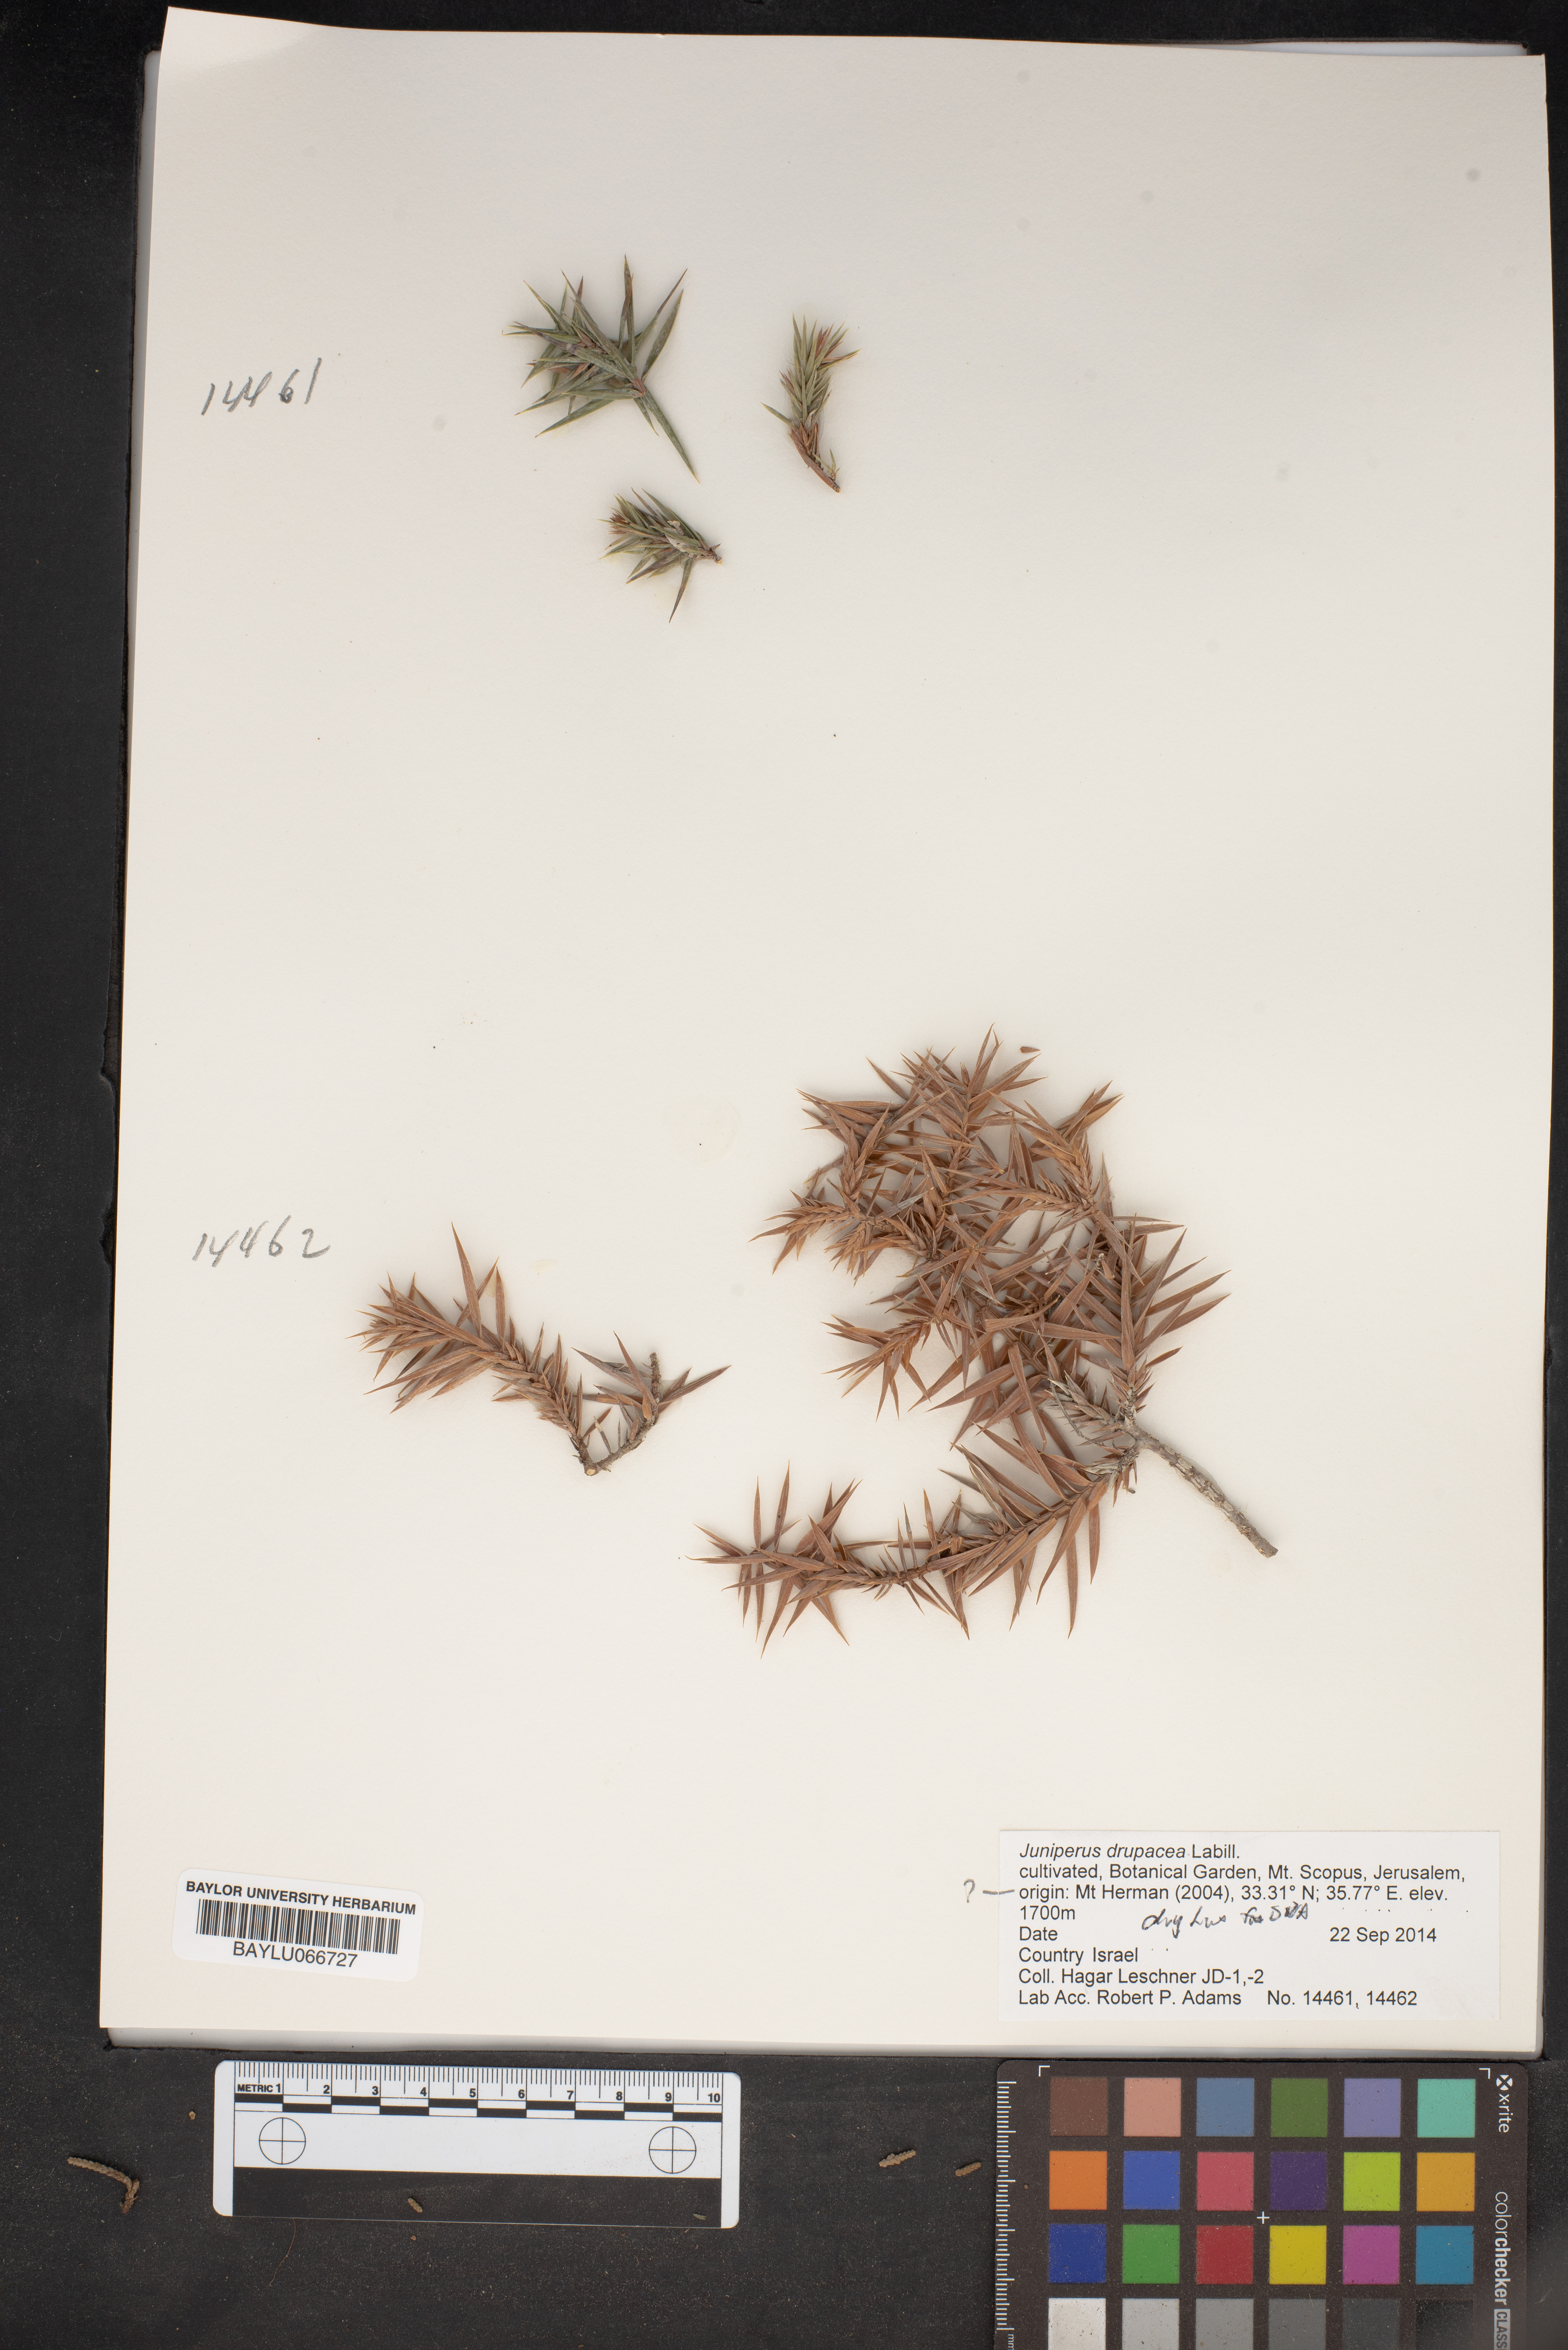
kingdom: Plantae
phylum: Tracheophyta
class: Pinopsida
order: Pinales
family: Cupressaceae
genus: Juniperus
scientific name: Juniperus drupacea
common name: Syrian juniper
